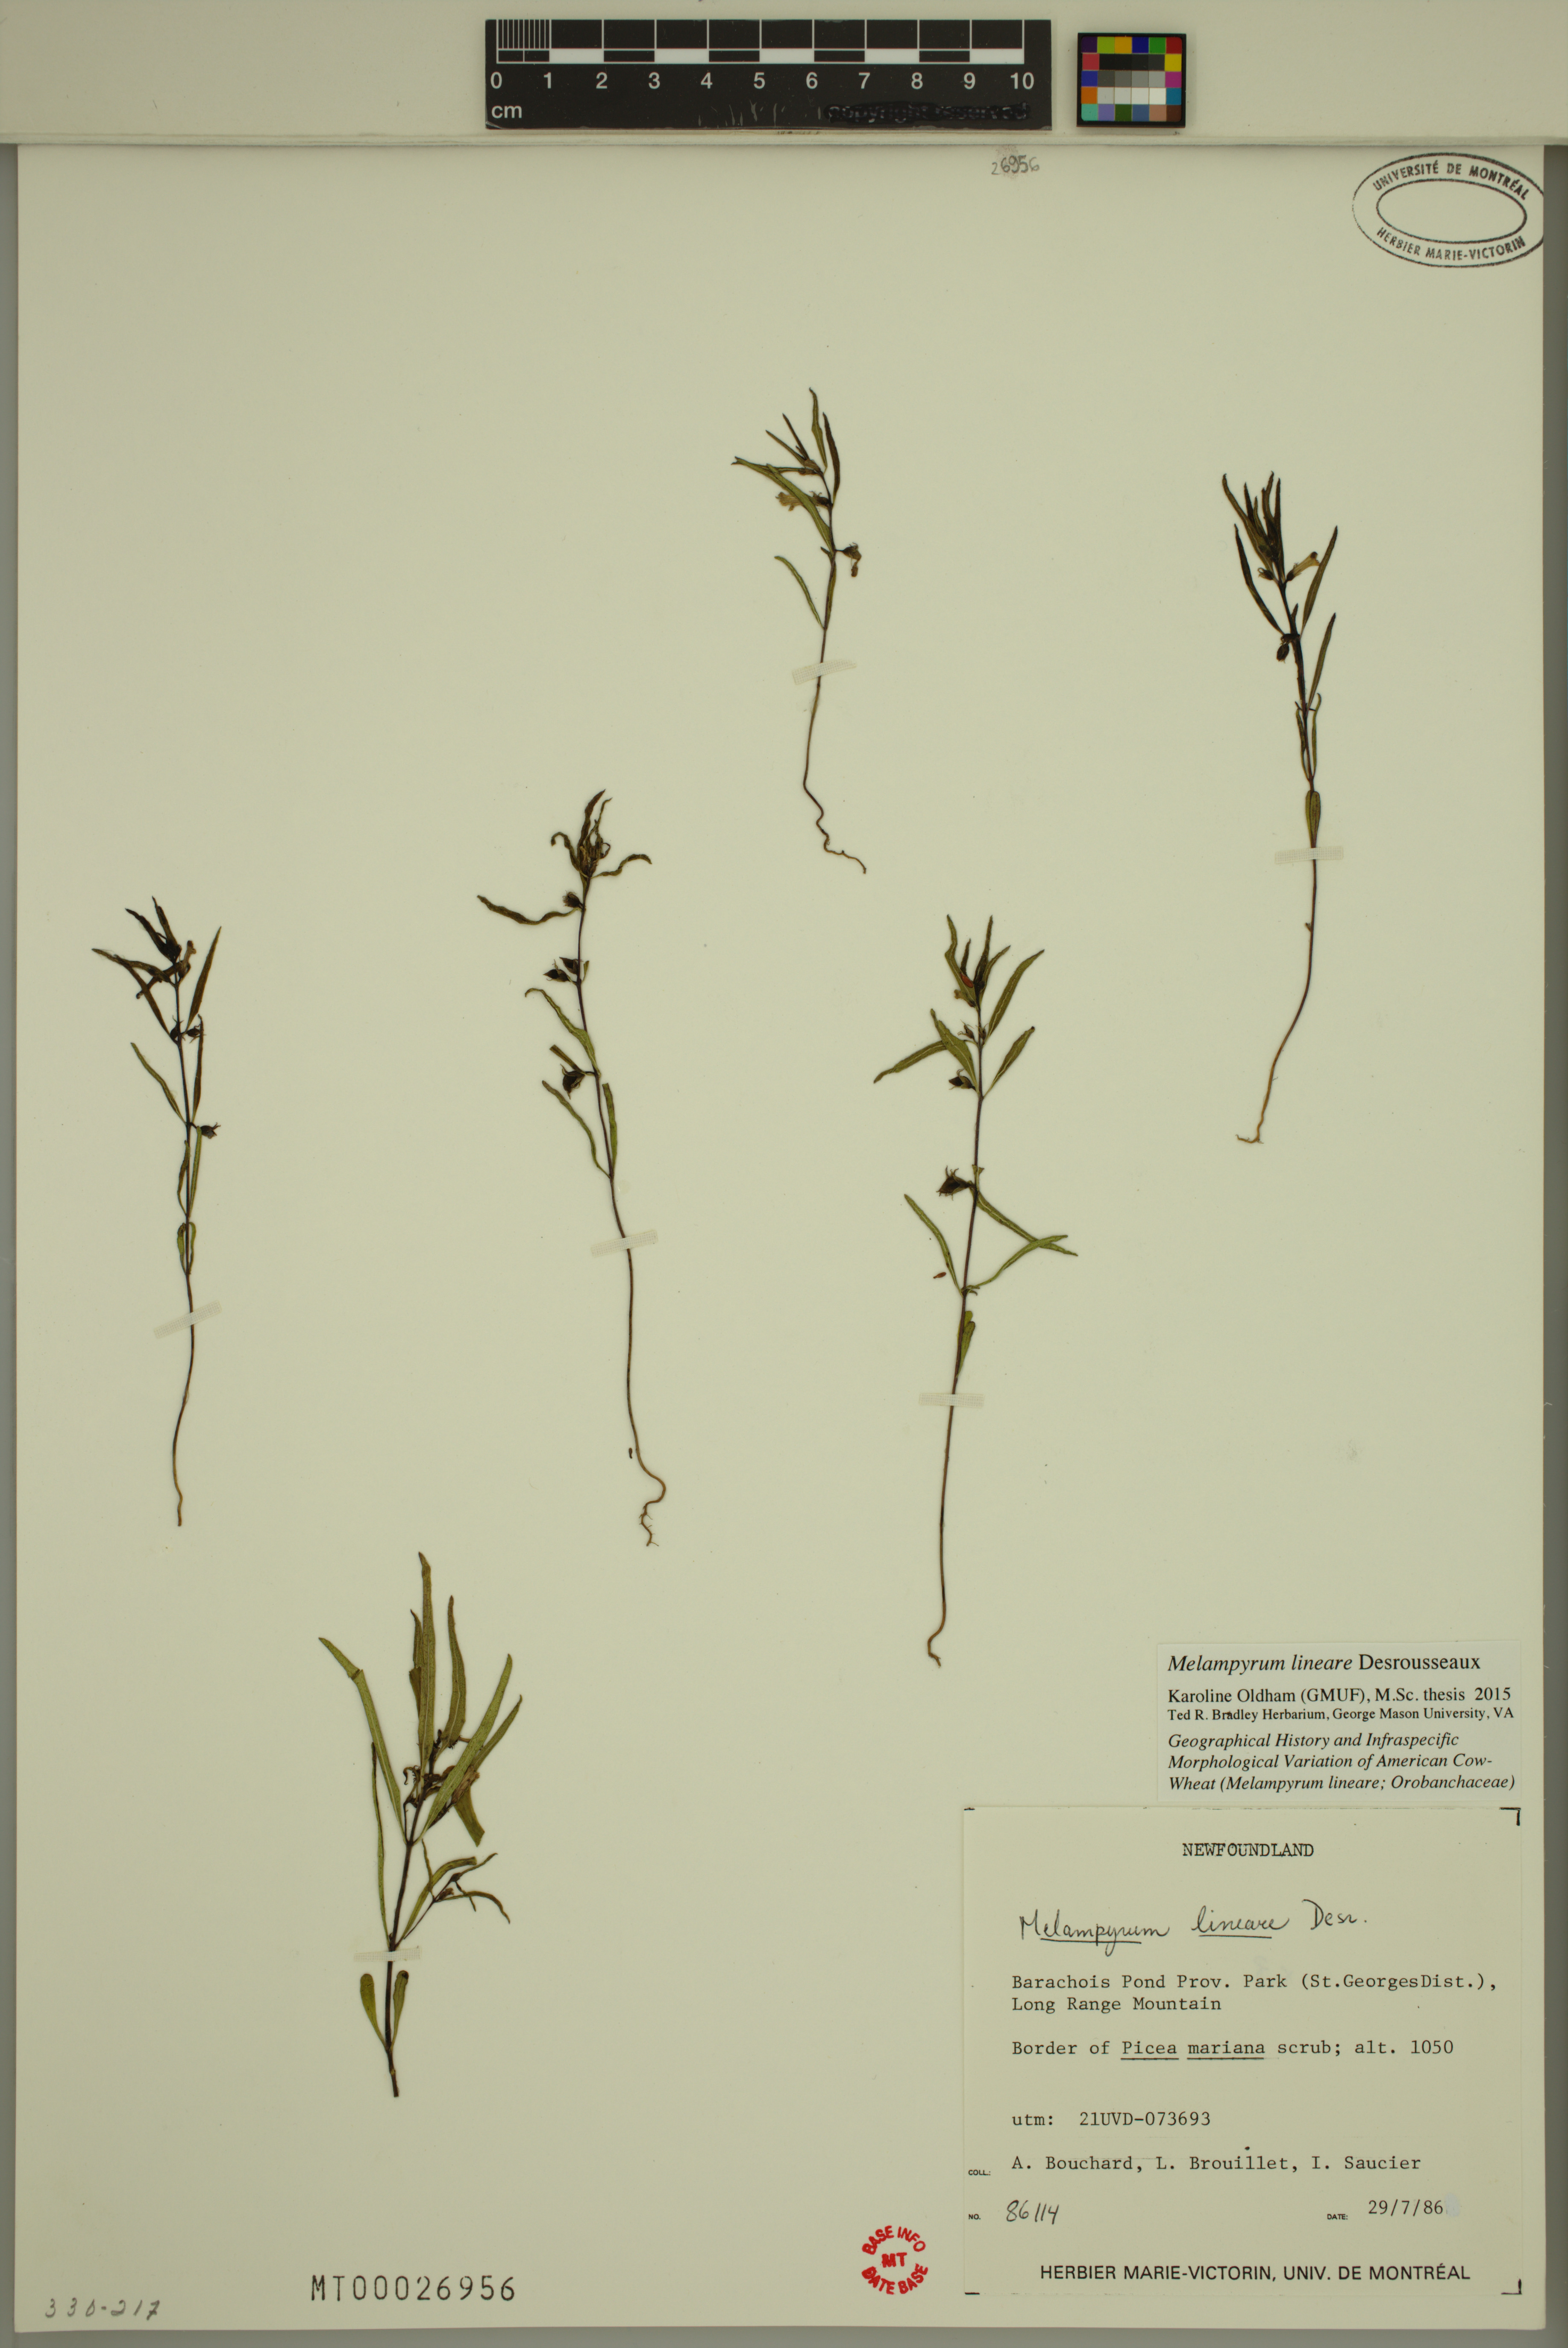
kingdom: Plantae
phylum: Tracheophyta
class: Magnoliopsida
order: Lamiales
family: Orobanchaceae
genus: Melampyrum
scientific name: Melampyrum lineare
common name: American cow-wheat
